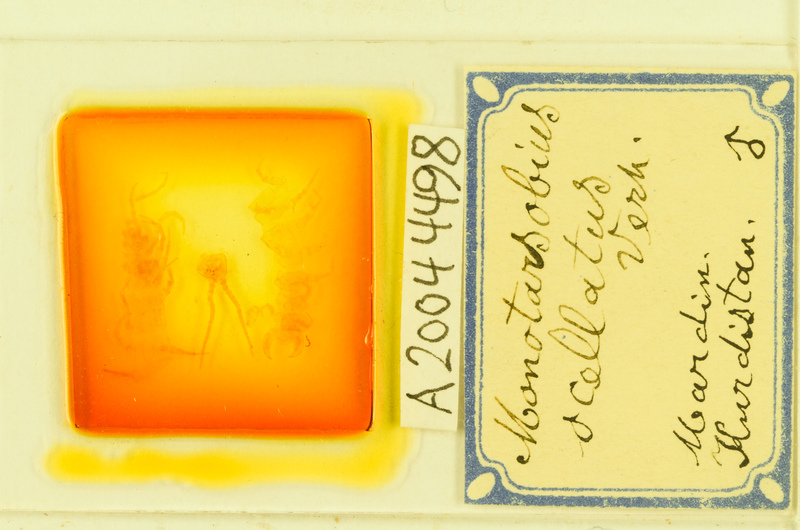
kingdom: Animalia
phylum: Arthropoda
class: Chilopoda
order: Lithobiomorpha
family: Lithobiidae
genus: Monotarsobius
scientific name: Monotarsobius
